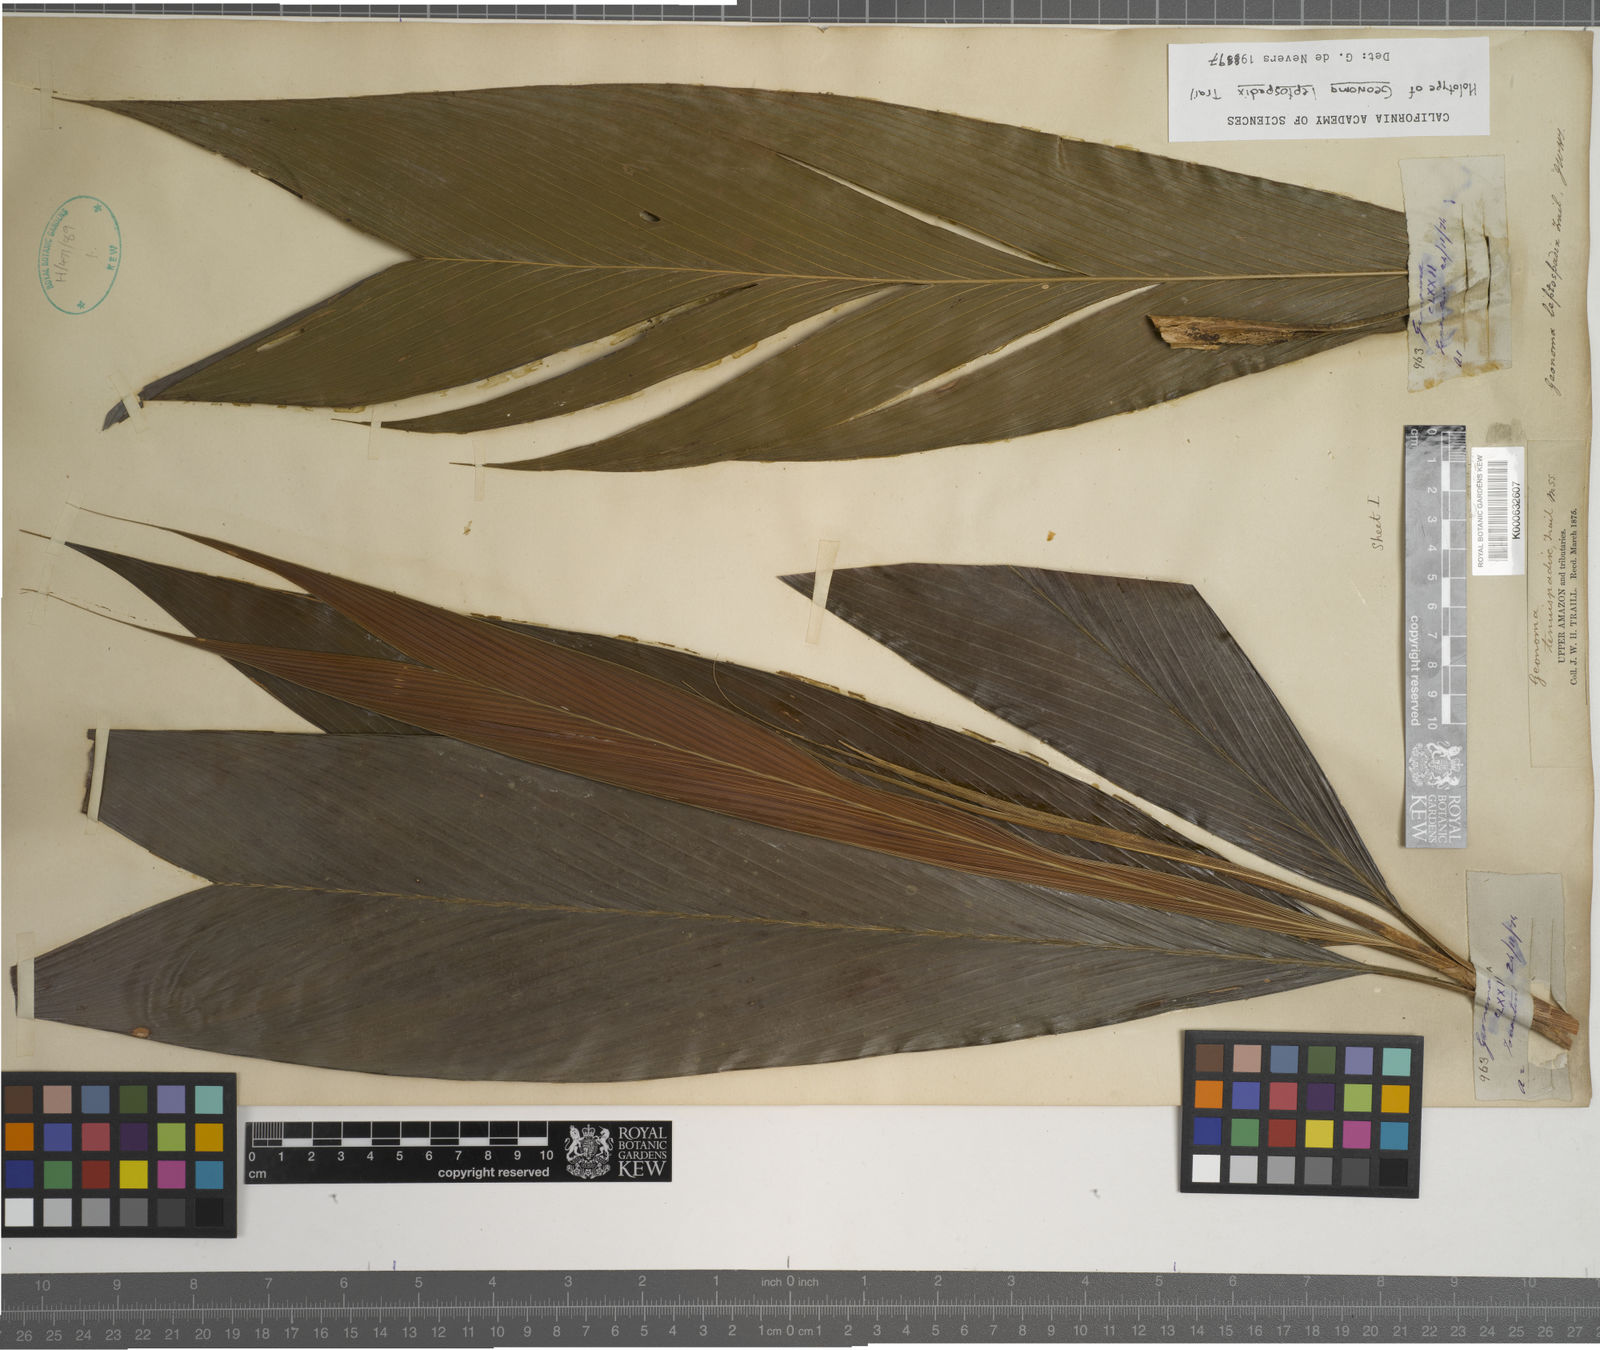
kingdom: Plantae
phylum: Tracheophyta
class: Liliopsida
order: Arecales
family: Arecaceae
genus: Geonoma
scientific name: Geonoma leptospadix
